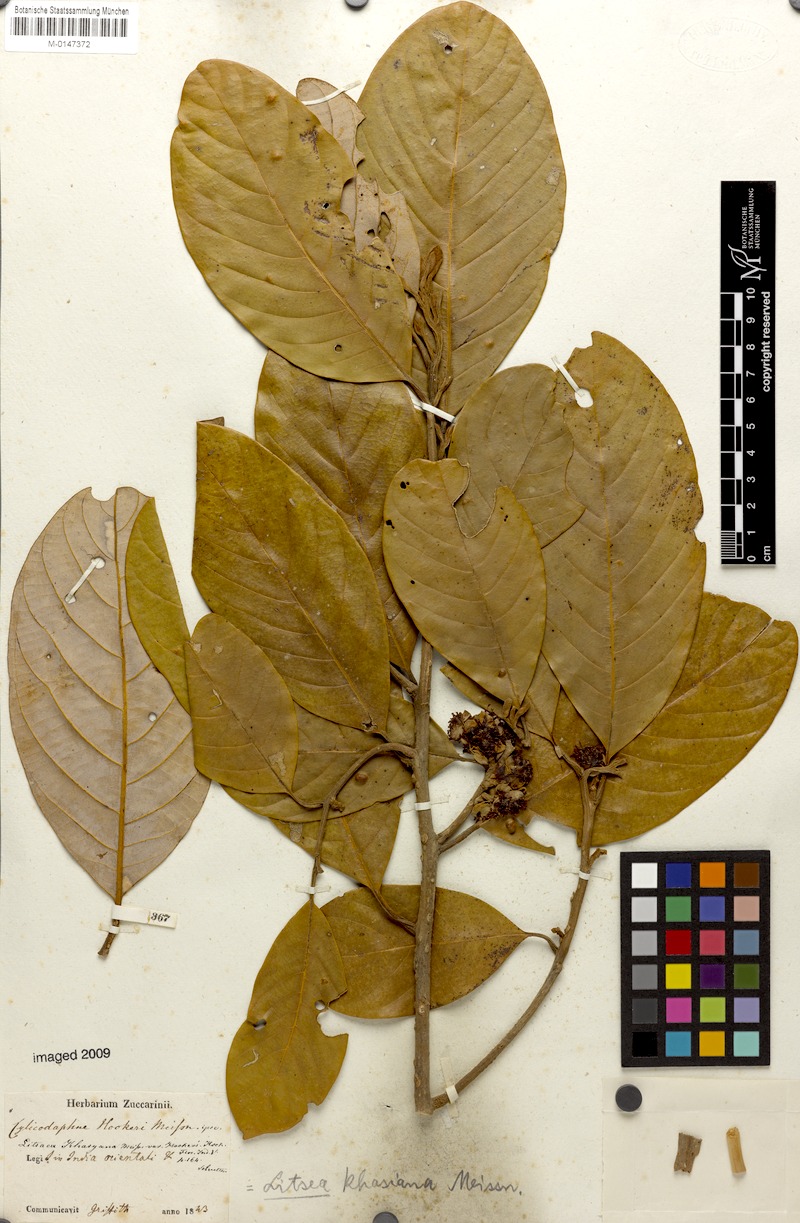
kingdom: Plantae
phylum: Tracheophyta
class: Magnoliopsida
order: Laurales
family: Lauraceae
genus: Litsea
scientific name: Litsea khasyana
